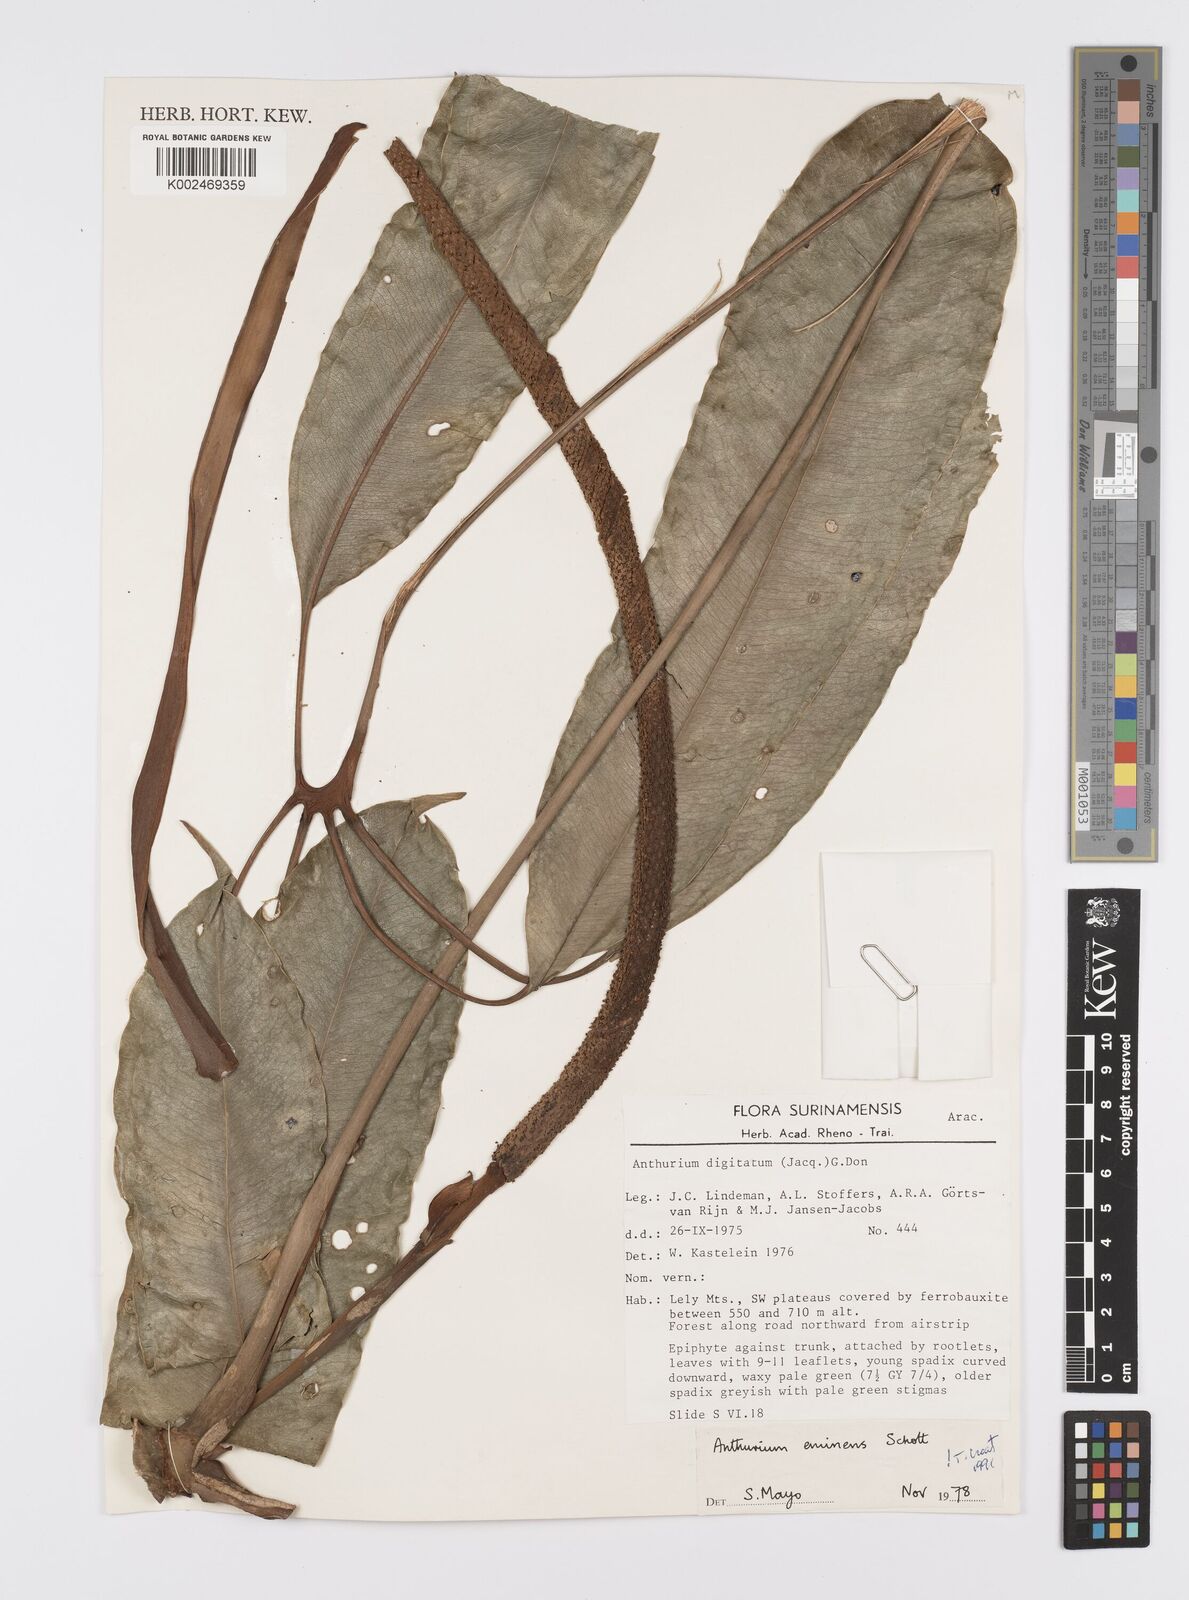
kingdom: Plantae
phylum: Tracheophyta
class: Liliopsida
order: Alismatales
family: Araceae
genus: Anthurium
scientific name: Anthurium eminens
